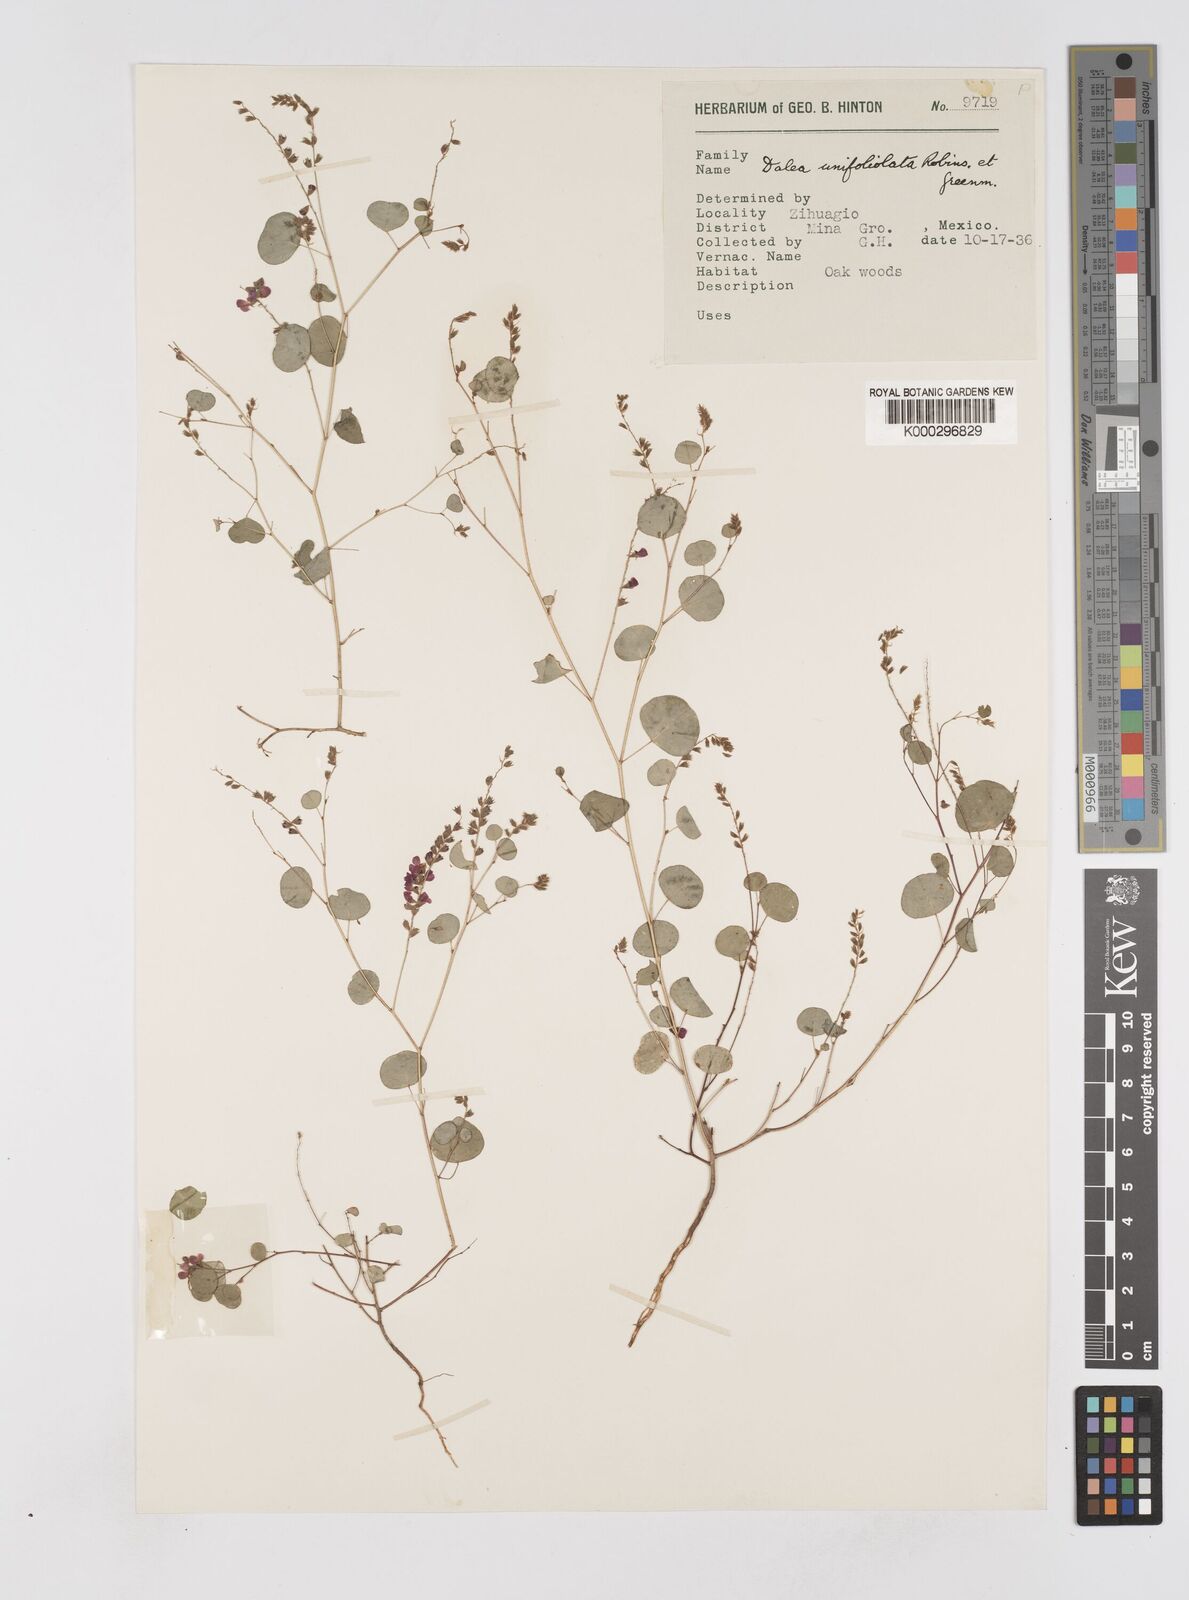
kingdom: Plantae
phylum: Tracheophyta
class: Magnoliopsida
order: Fabales
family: Fabaceae
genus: Marina
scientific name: Marina
